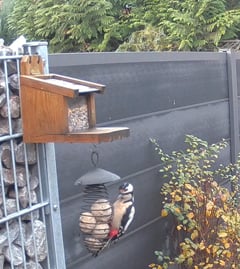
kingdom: Animalia
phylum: Chordata
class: Aves
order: Piciformes
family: Picidae
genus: Dendrocopos
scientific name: Dendrocopos major
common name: Great spotted woodpecker
